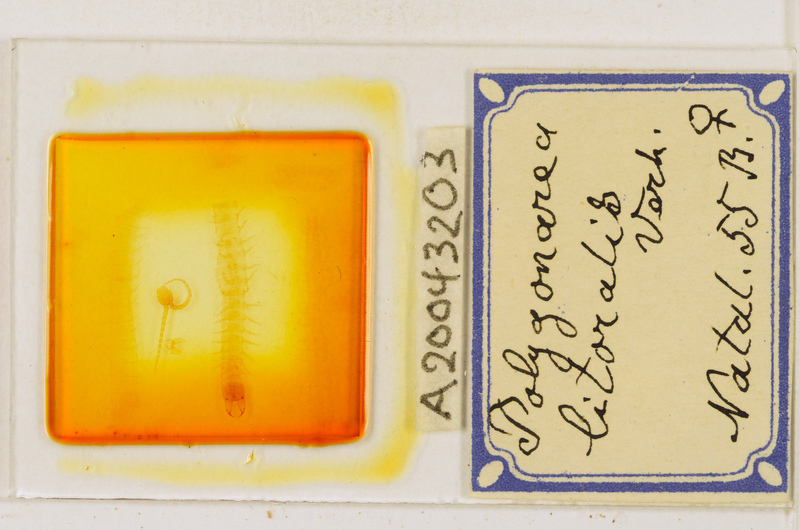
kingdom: Animalia
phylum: Arthropoda
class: Chilopoda
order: Geophilomorpha
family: Geophilidae
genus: Polygonarea
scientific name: Polygonarea litoralis
